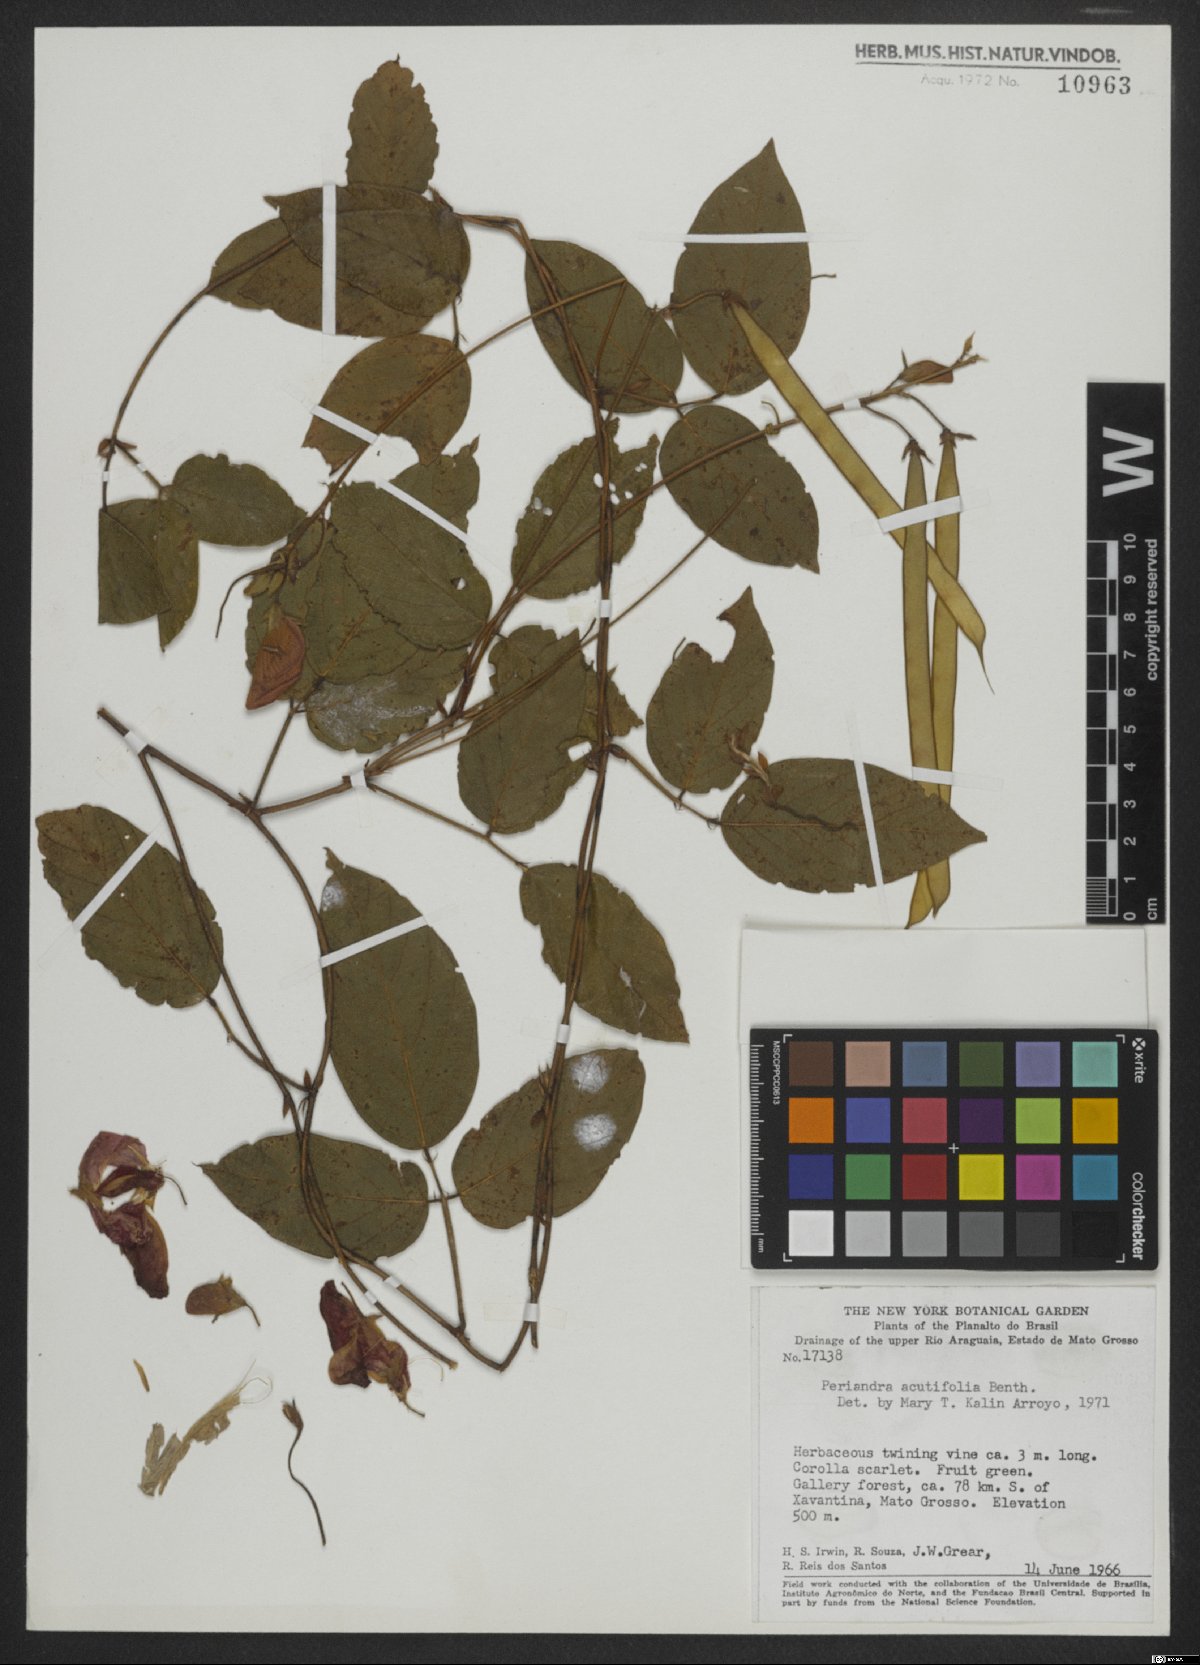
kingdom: Plantae
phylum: Tracheophyta
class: Magnoliopsida
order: Fabales
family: Fabaceae
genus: Periandra
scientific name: Periandra coccinea
